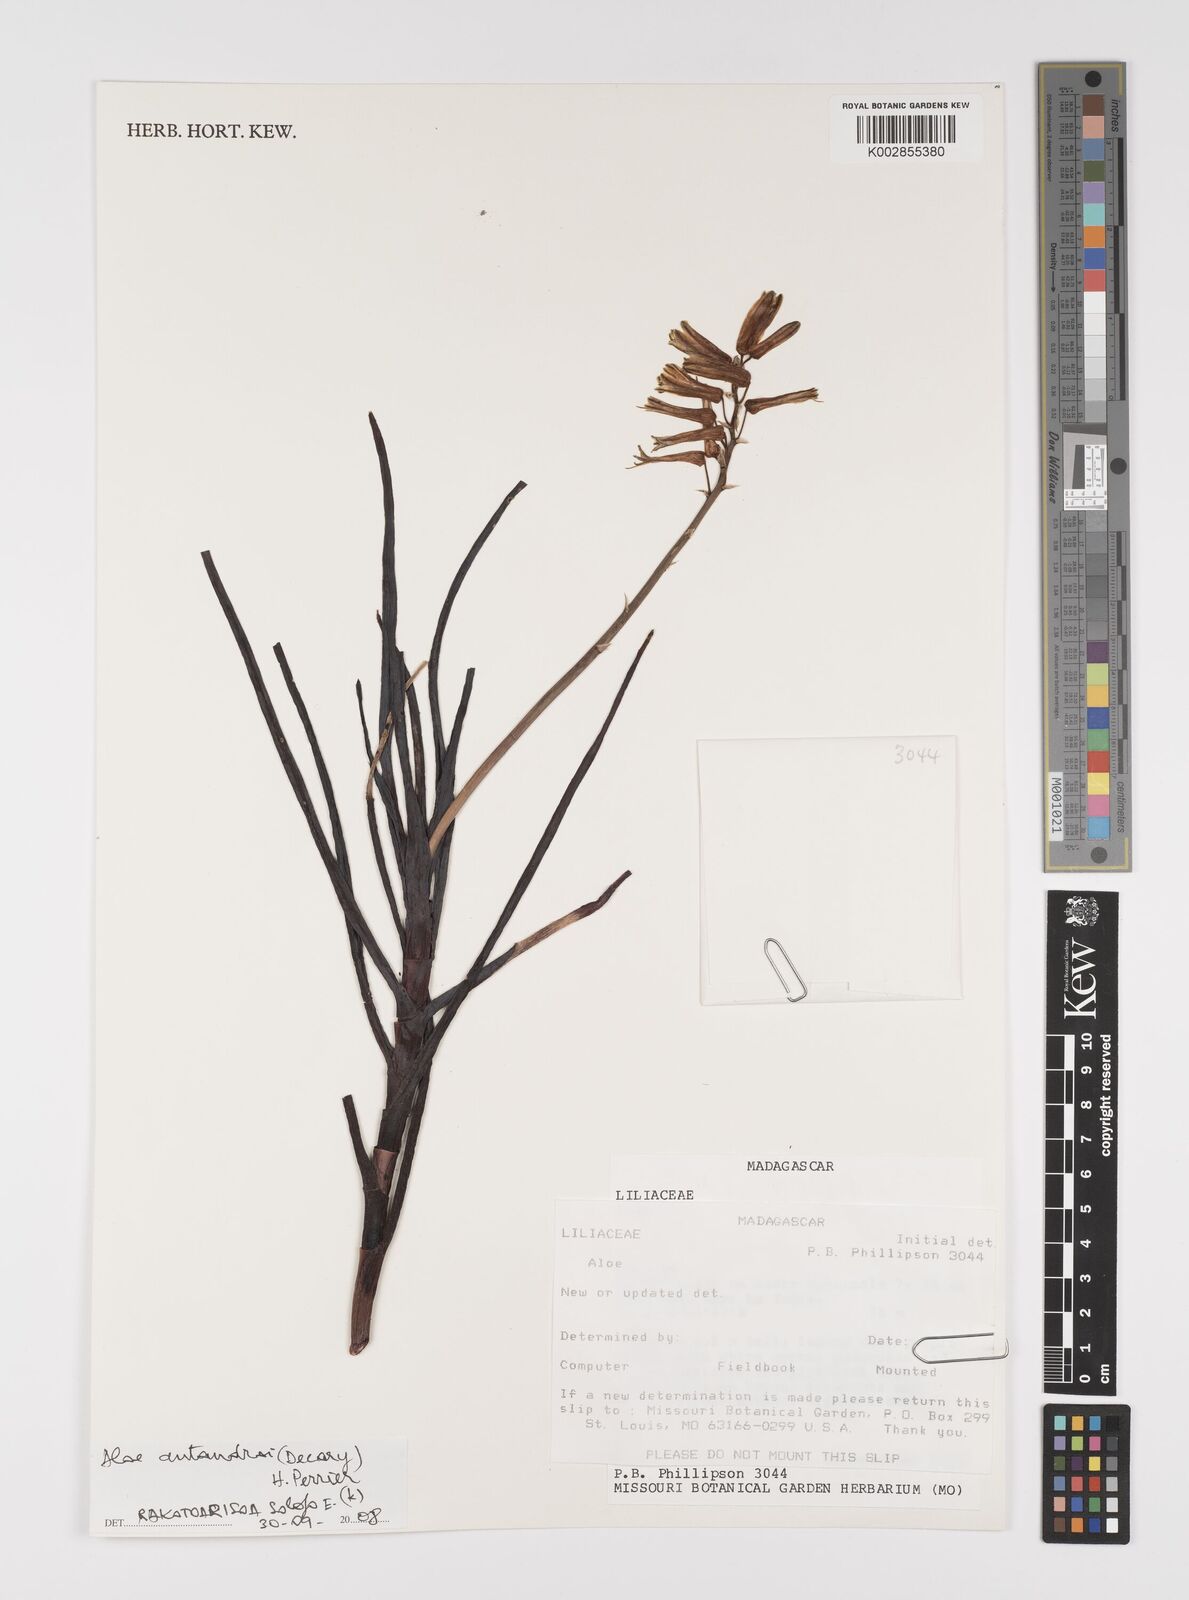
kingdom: Plantae
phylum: Tracheophyta
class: Liliopsida
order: Asparagales
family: Asphodelaceae
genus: Aloe
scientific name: Aloe antandroi
